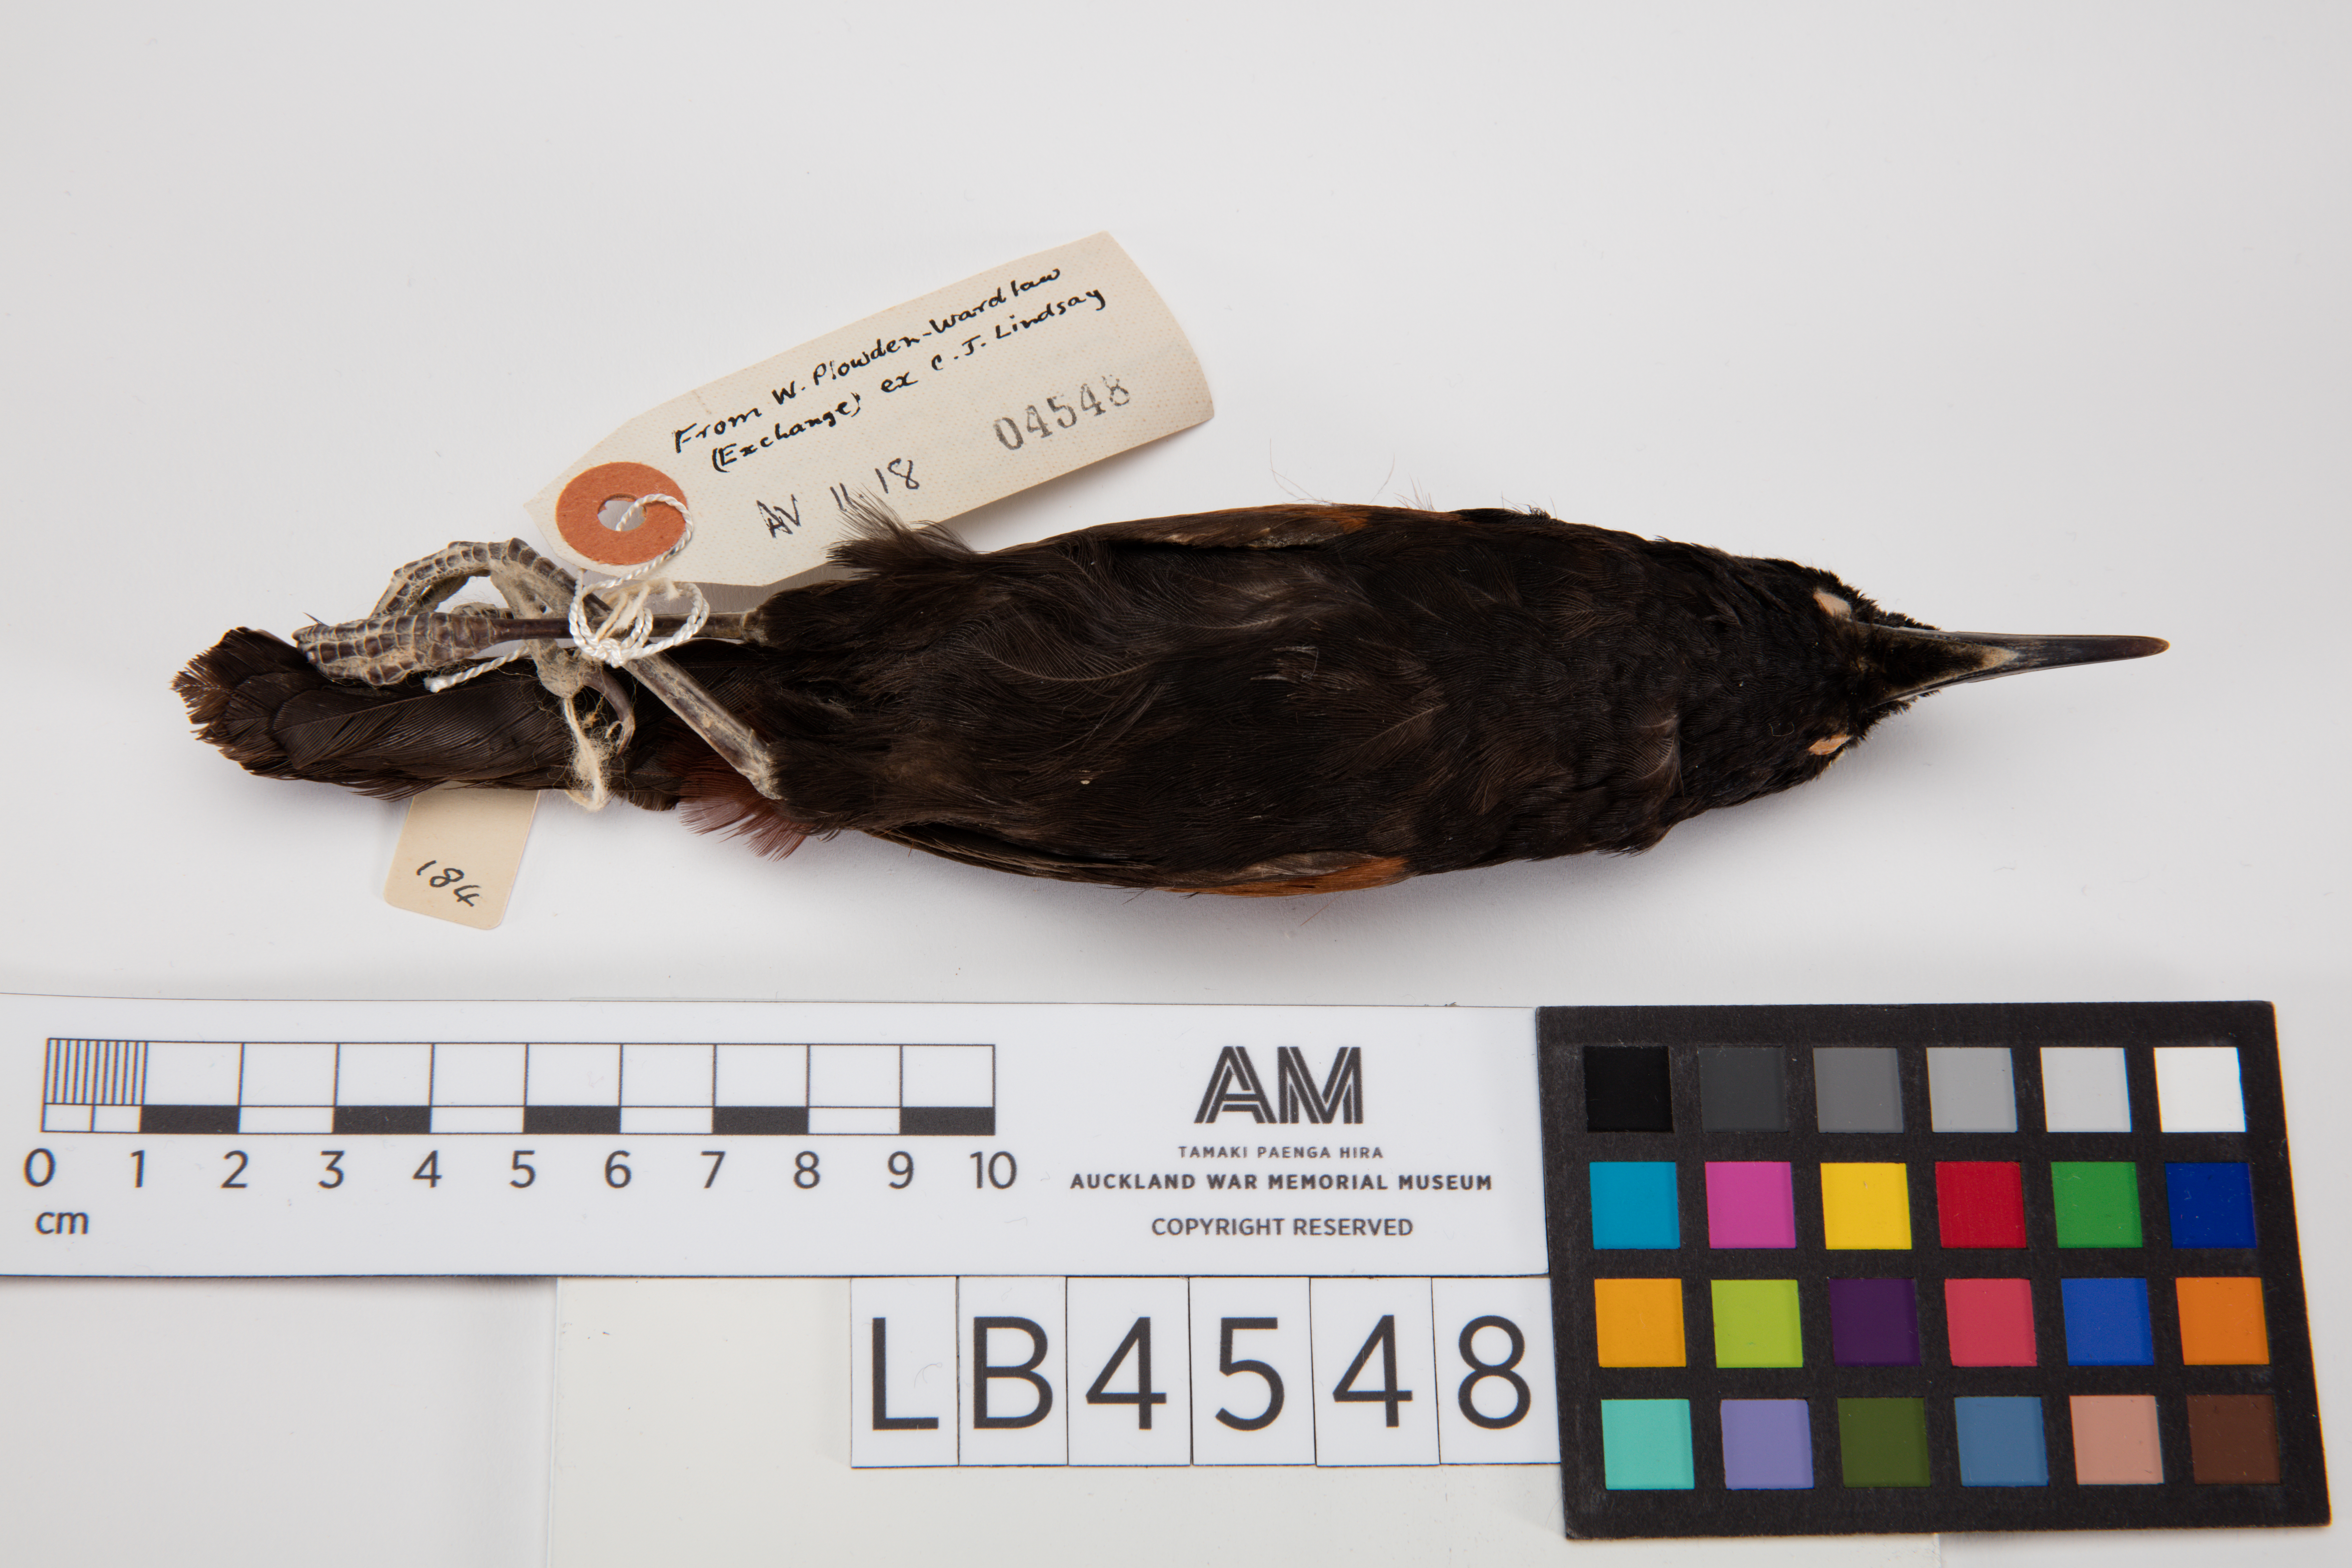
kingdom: Animalia
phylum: Chordata
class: Aves
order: Passeriformes
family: Callaeatidae
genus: Philesturnus
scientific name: Philesturnus carunculatus
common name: South island saddleback
